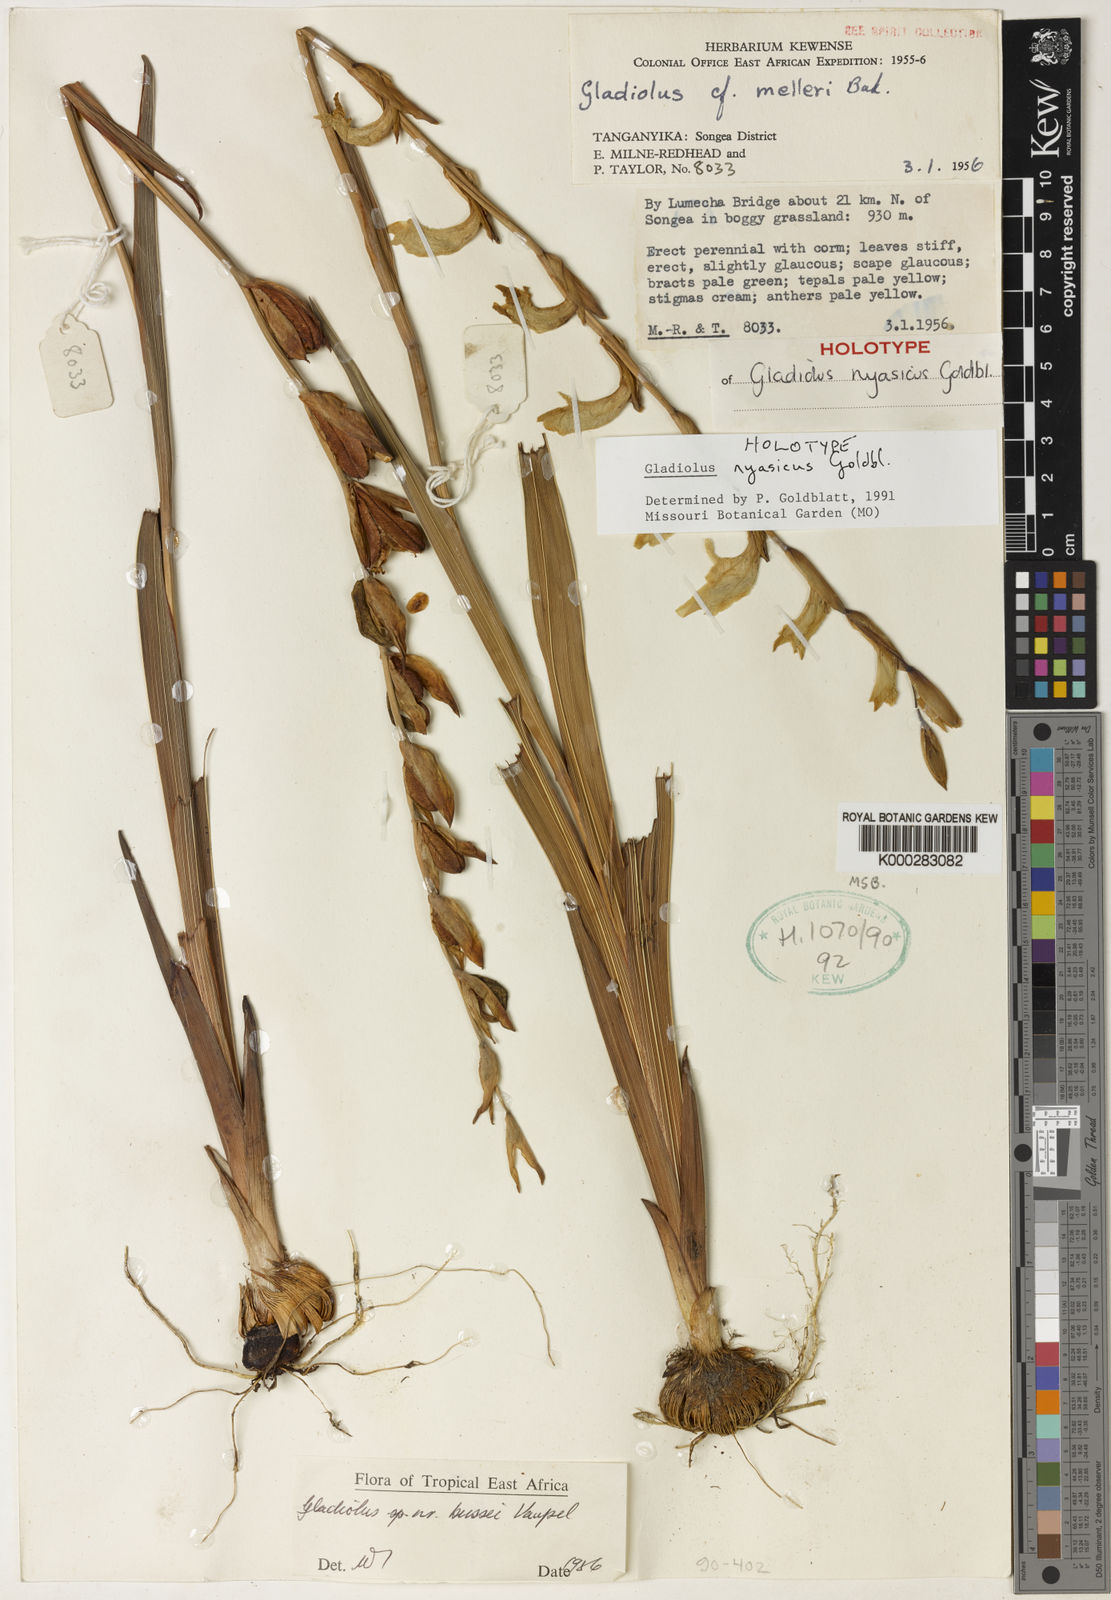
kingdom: Plantae
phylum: Tracheophyta
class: Liliopsida
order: Asparagales
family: Iridaceae
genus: Gladiolus
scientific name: Gladiolus nyasicus
